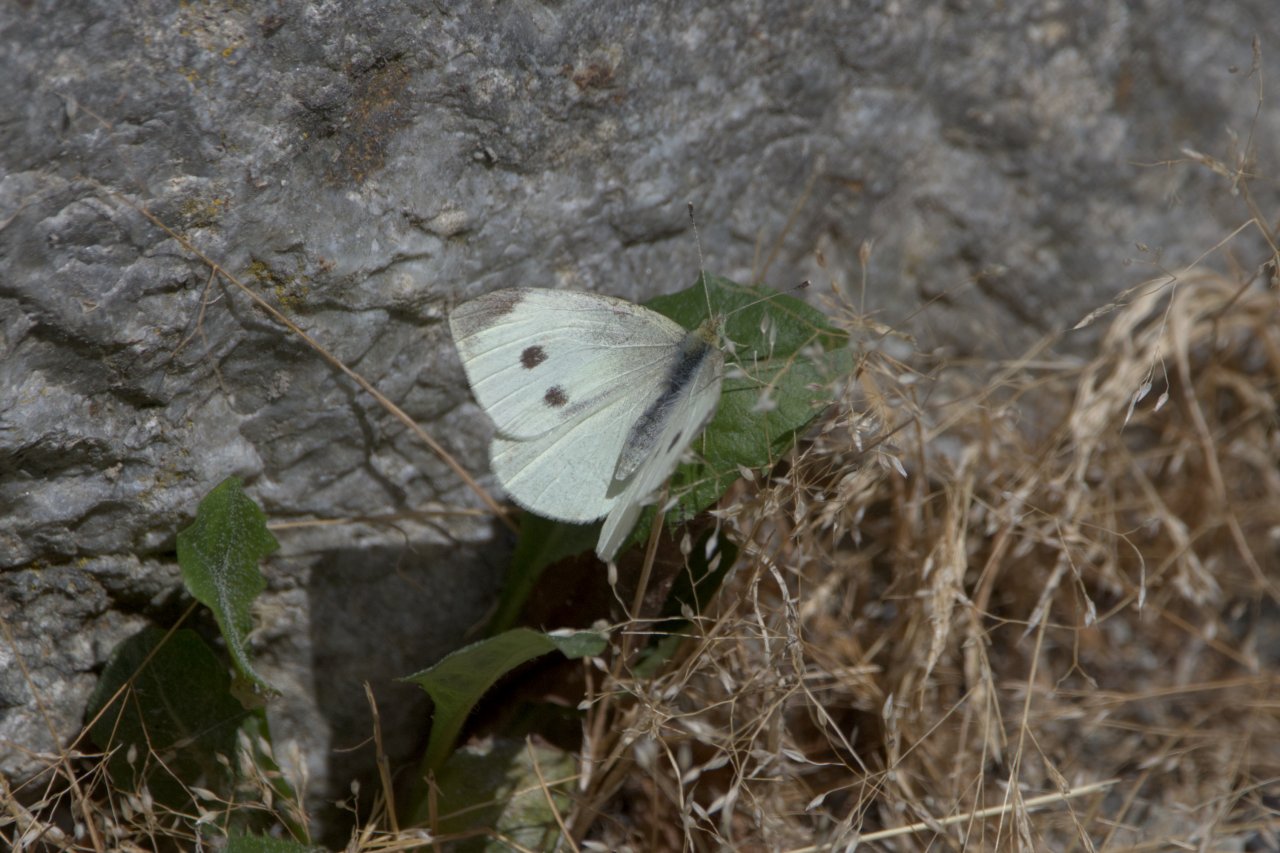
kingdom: Animalia
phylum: Arthropoda
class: Insecta
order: Lepidoptera
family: Pieridae
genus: Pieris
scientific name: Pieris rapae
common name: Cabbage White
